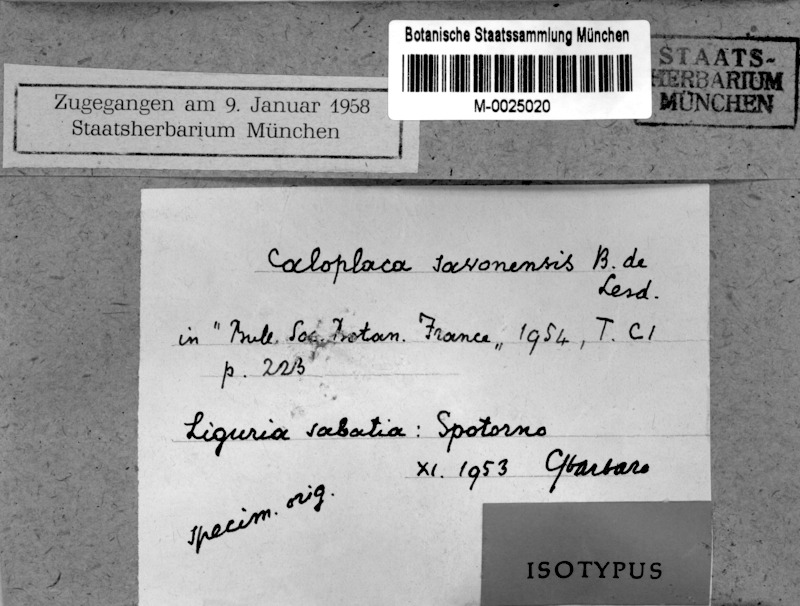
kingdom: Fungi
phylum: Ascomycota
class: Lecanoromycetes
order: Teloschistales
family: Teloschistaceae
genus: Caloplaca
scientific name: Caloplaca spotornonis
